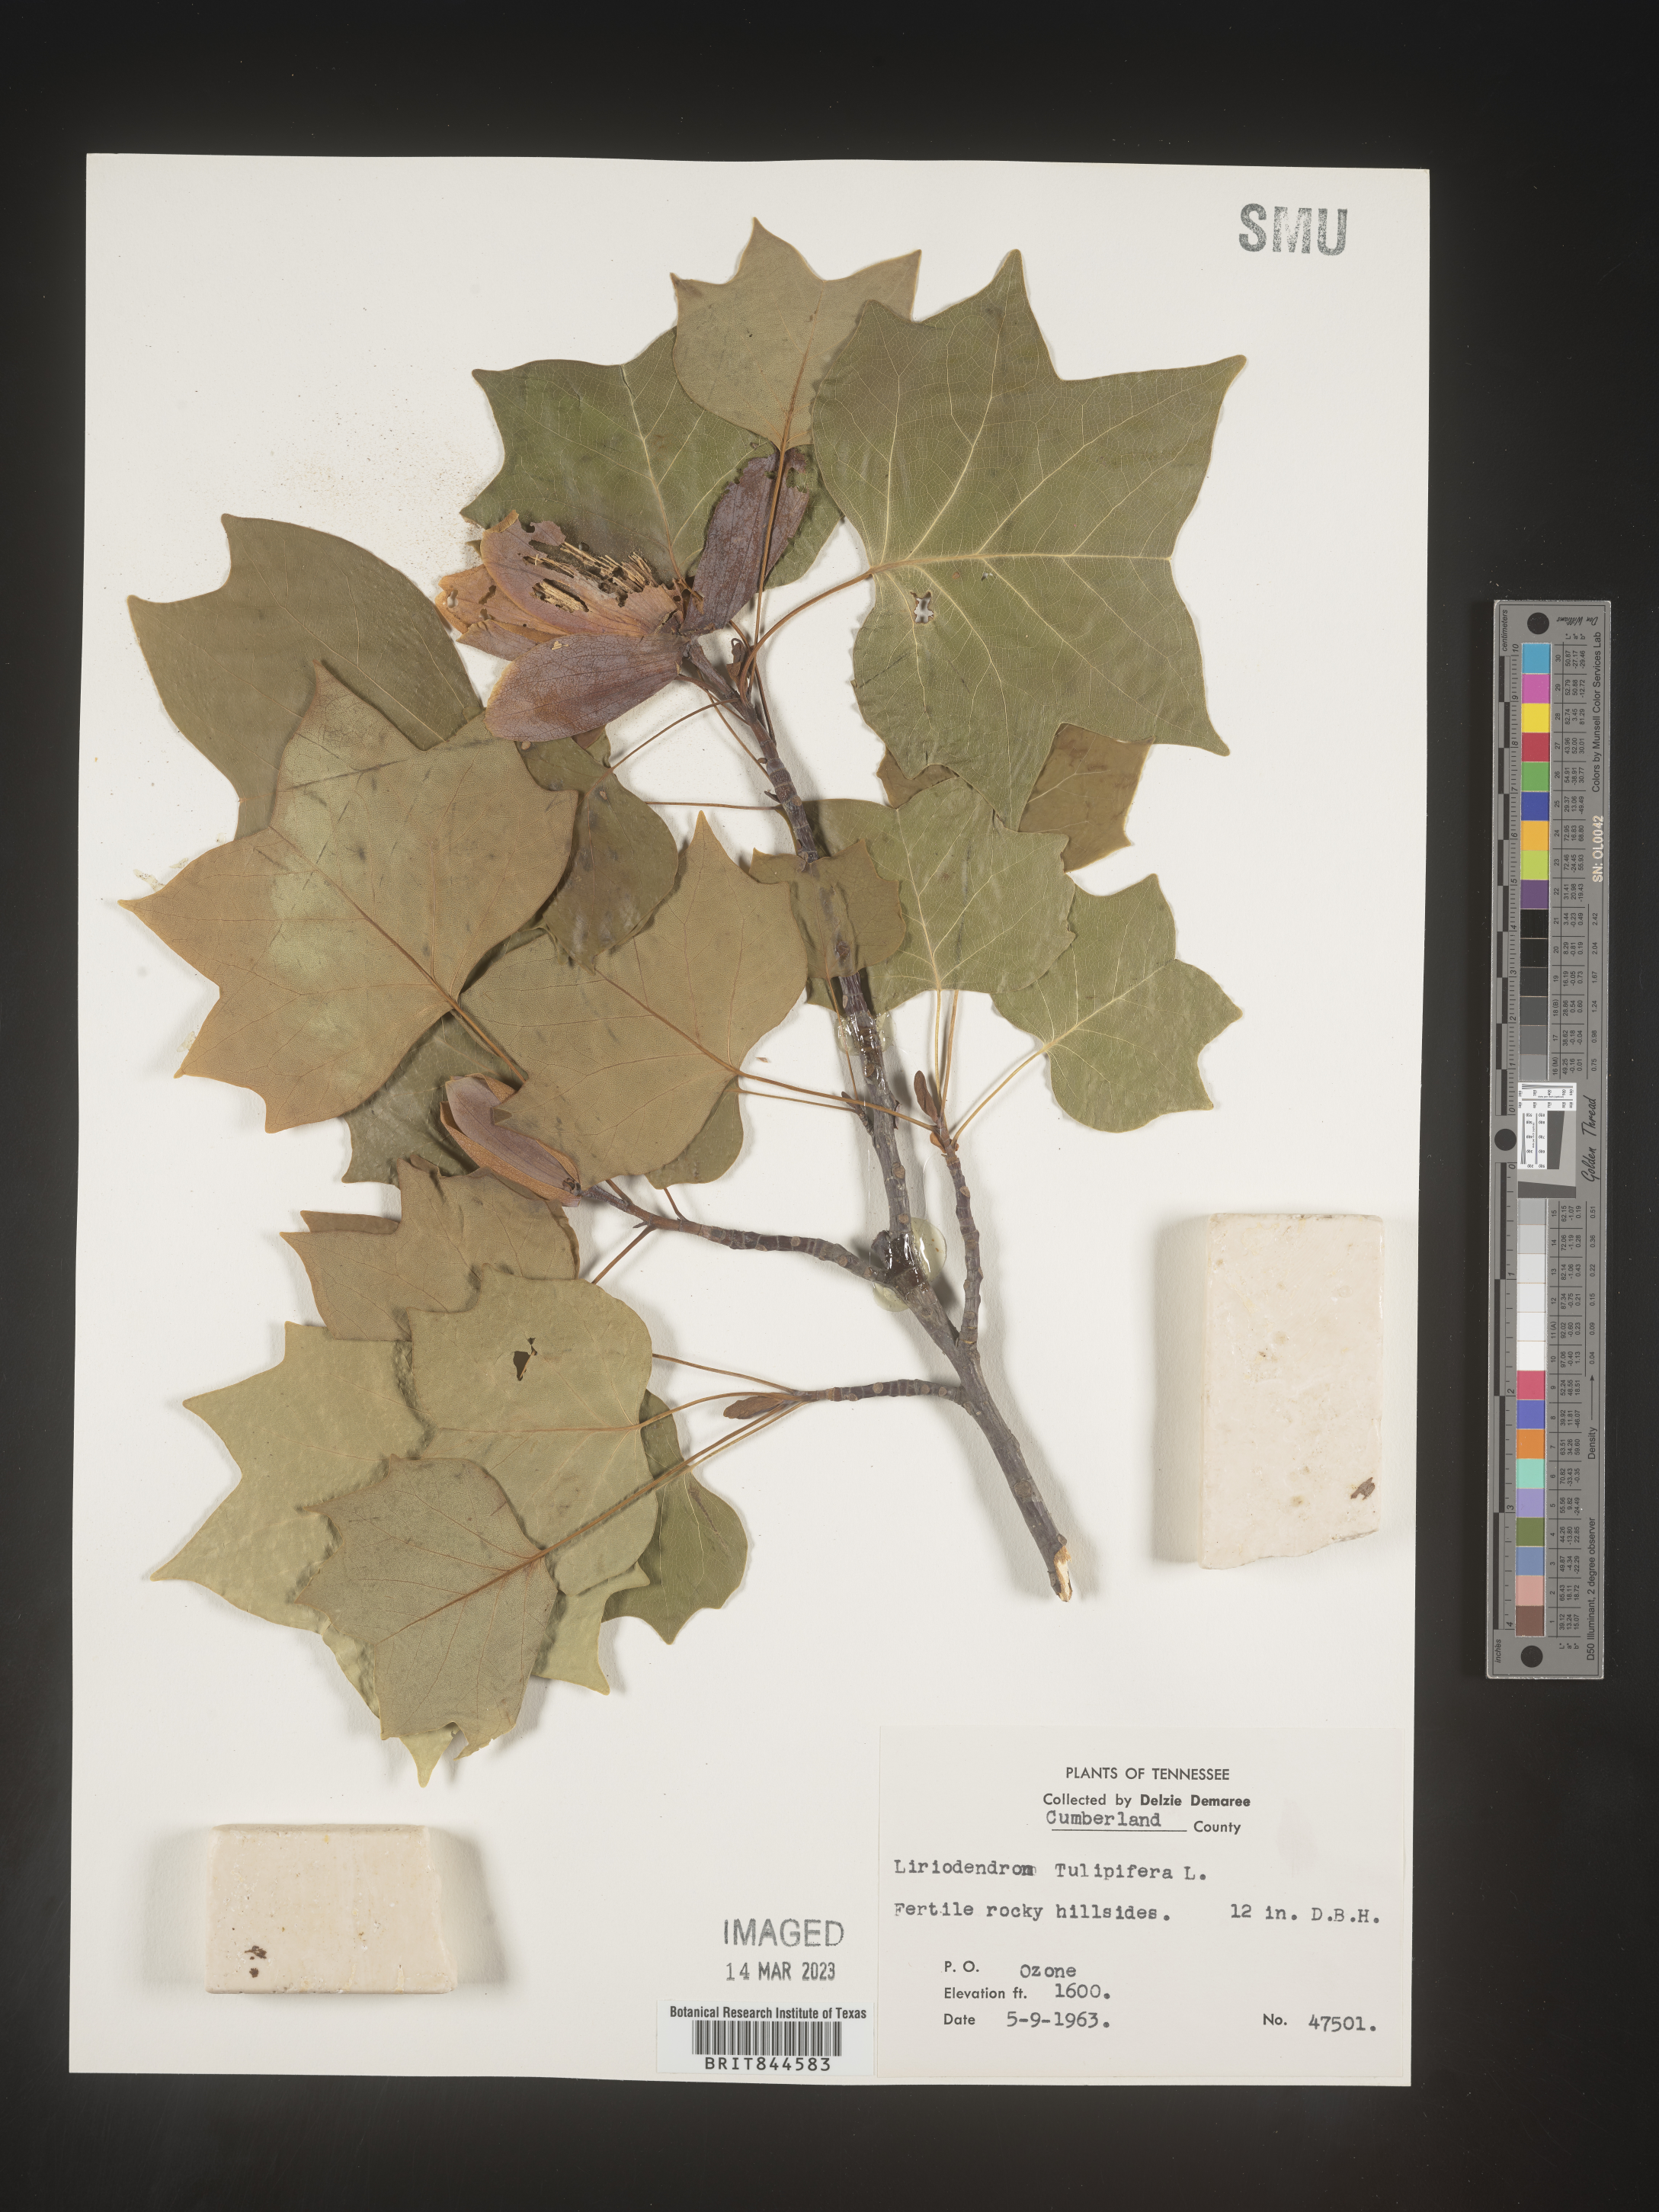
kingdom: Plantae
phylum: Tracheophyta
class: Magnoliopsida
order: Magnoliales
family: Magnoliaceae
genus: Liriodendron
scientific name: Liriodendron tulipifera
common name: Tulip tree
